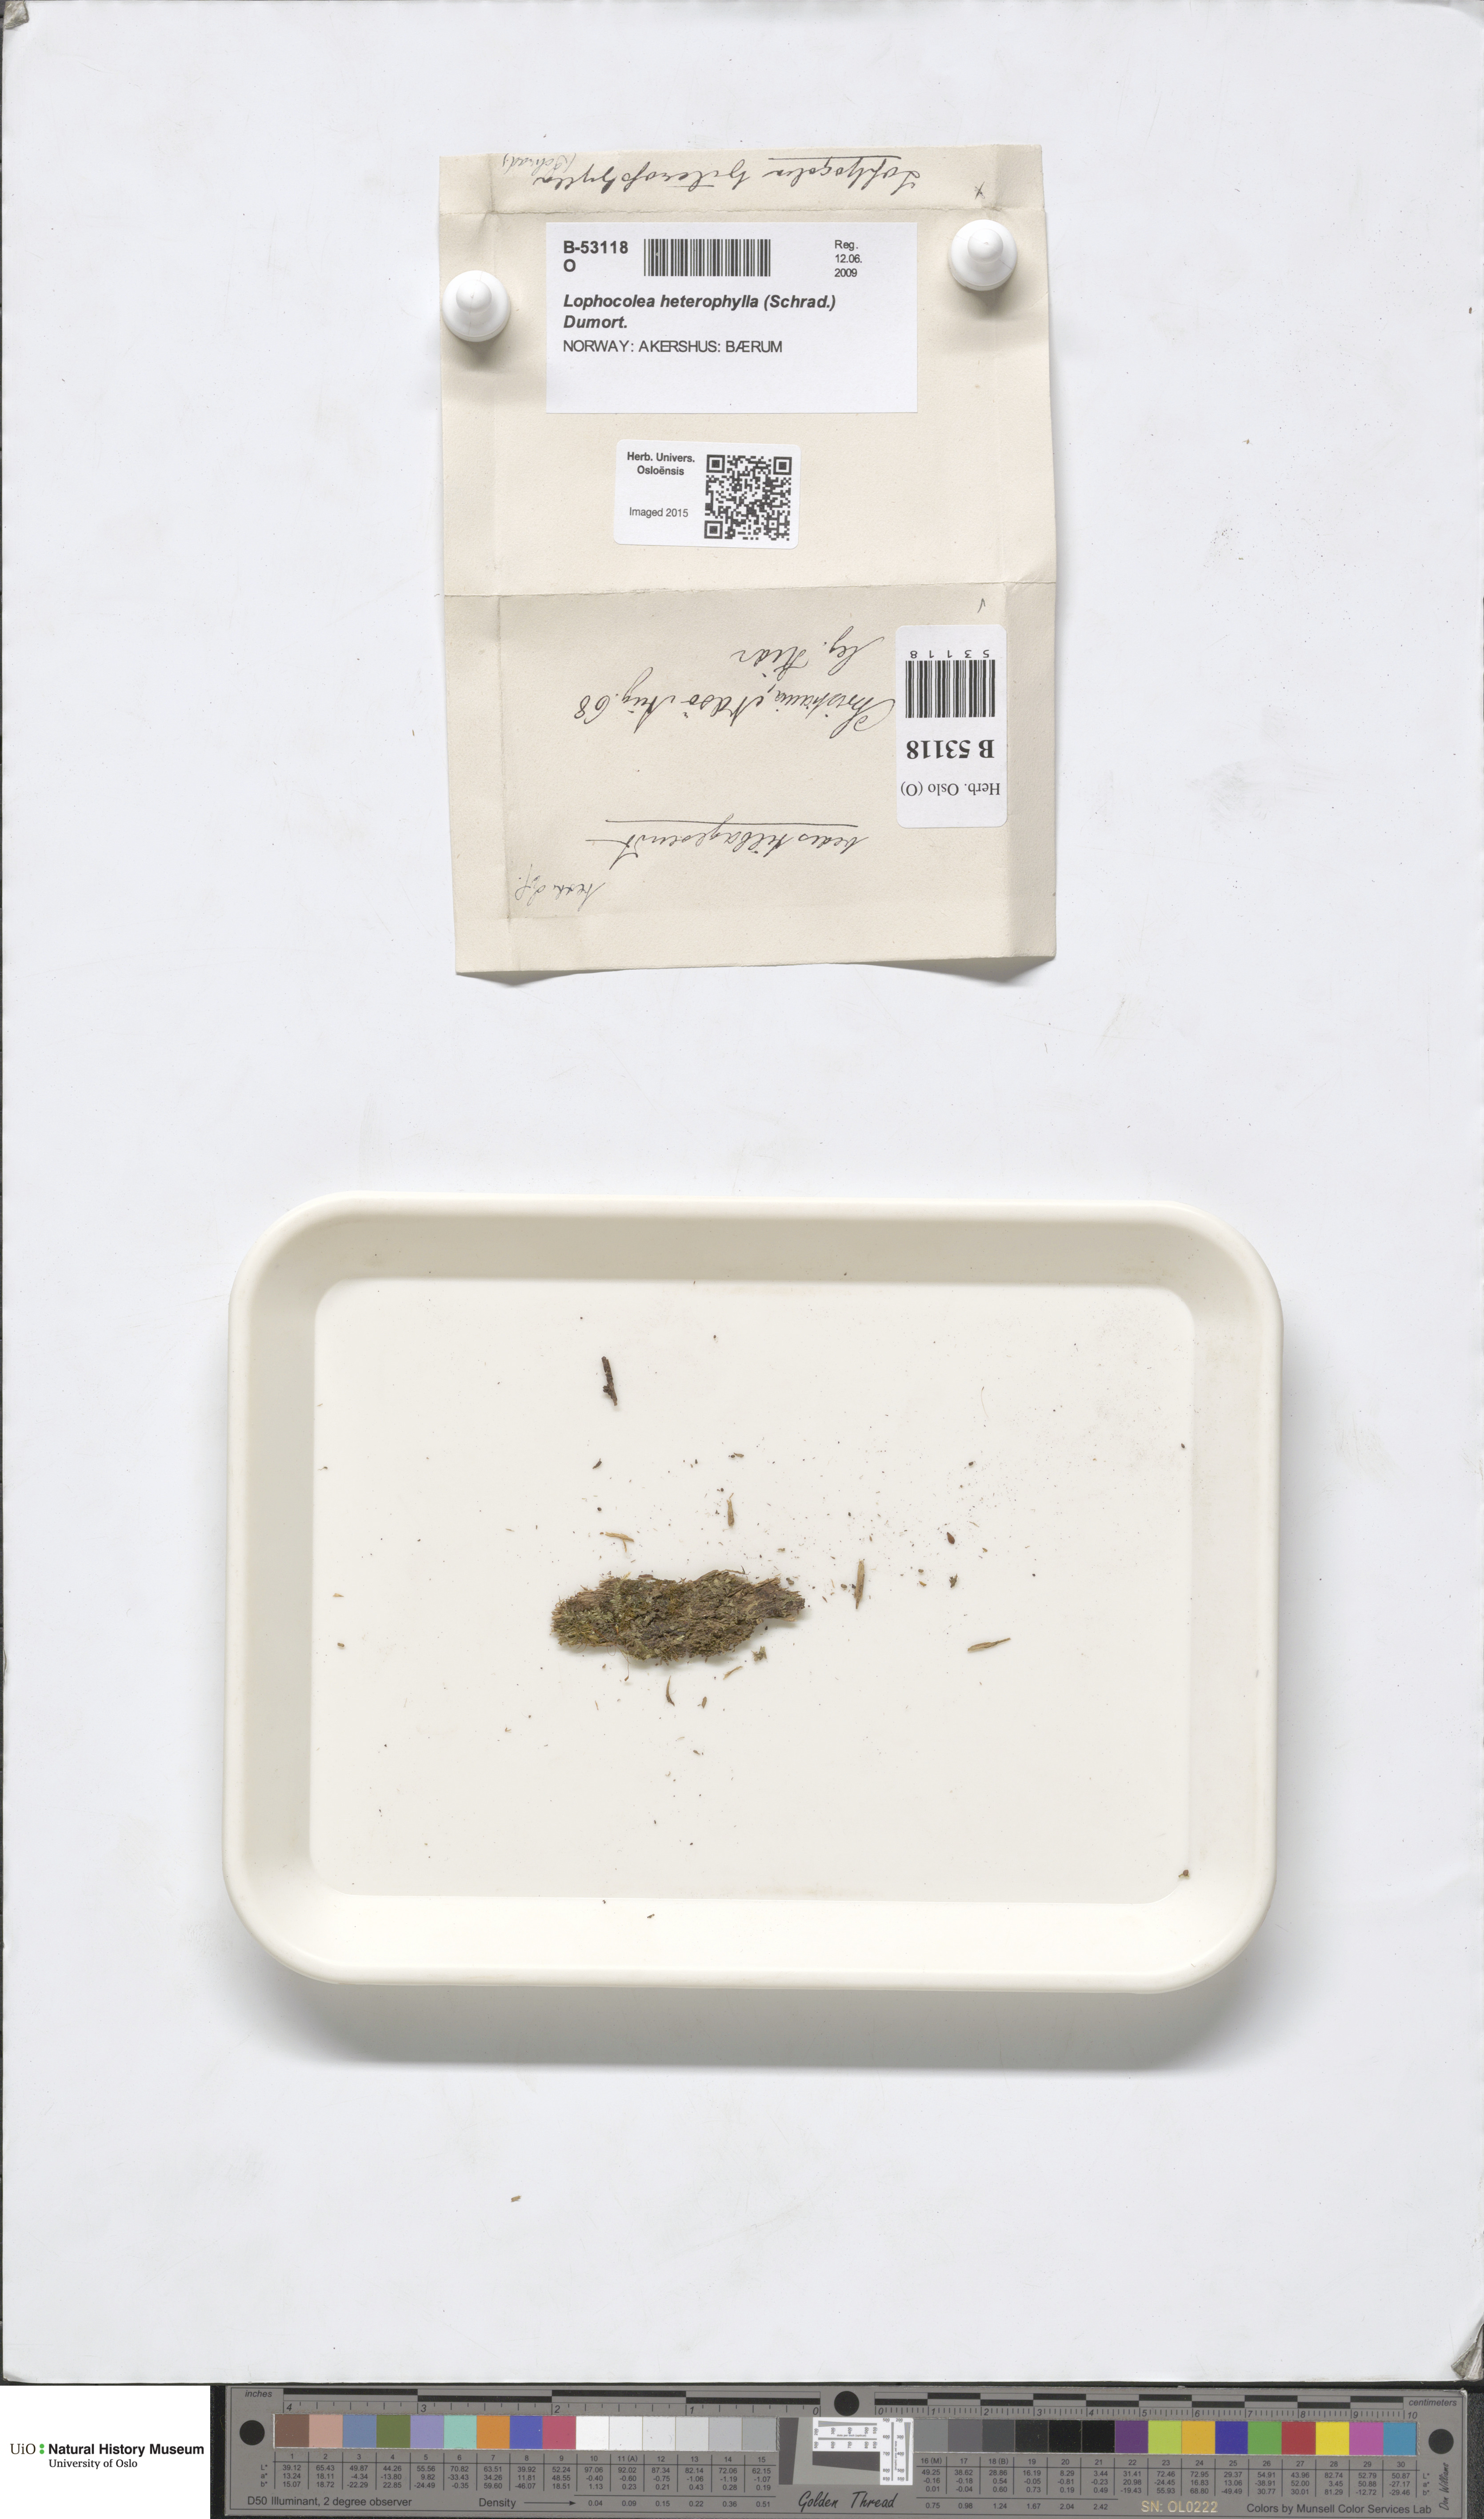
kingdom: Plantae
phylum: Marchantiophyta
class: Jungermanniopsida
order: Jungermanniales
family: Lophocoleaceae
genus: Lophocolea
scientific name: Lophocolea heterophylla
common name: Variable-leaved crestwort
